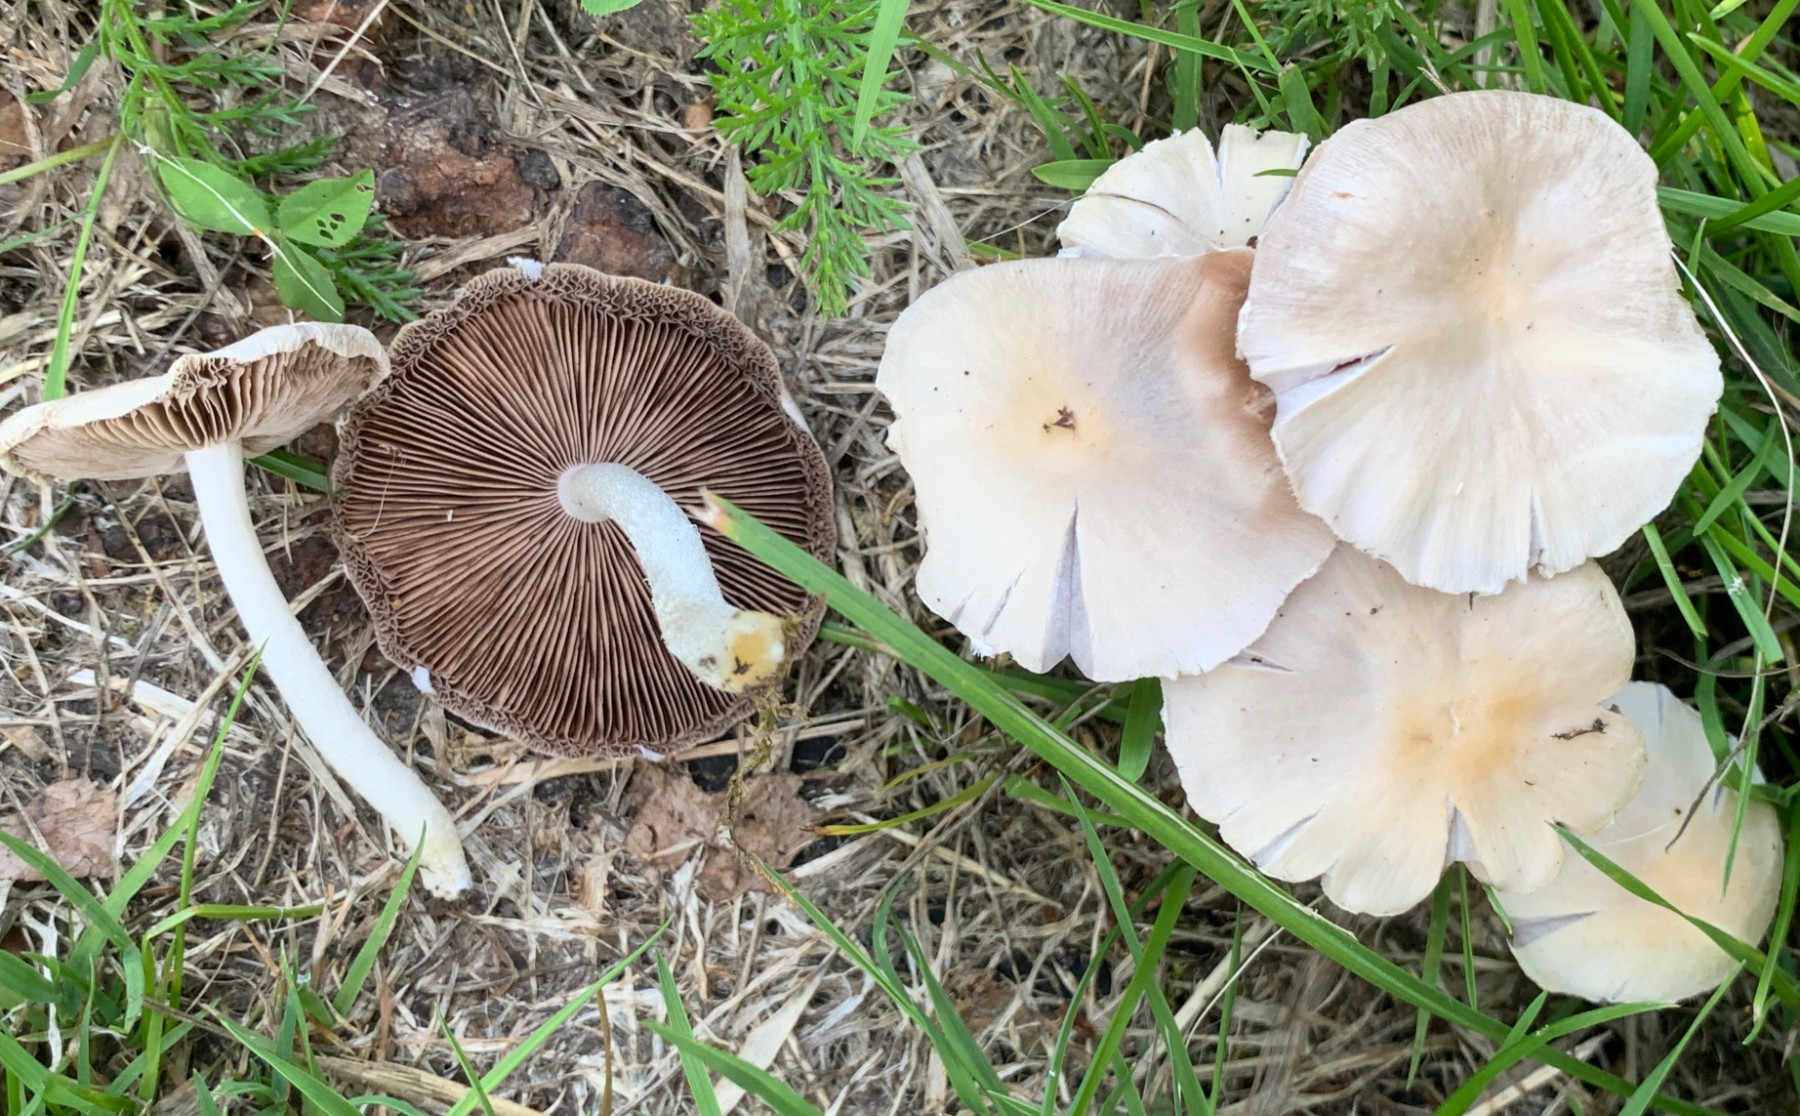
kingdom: Fungi
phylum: Basidiomycota
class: Agaricomycetes
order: Agaricales
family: Psathyrellaceae
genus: Candolleomyces
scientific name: Candolleomyces candolleanus
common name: Candolles mørkhat
